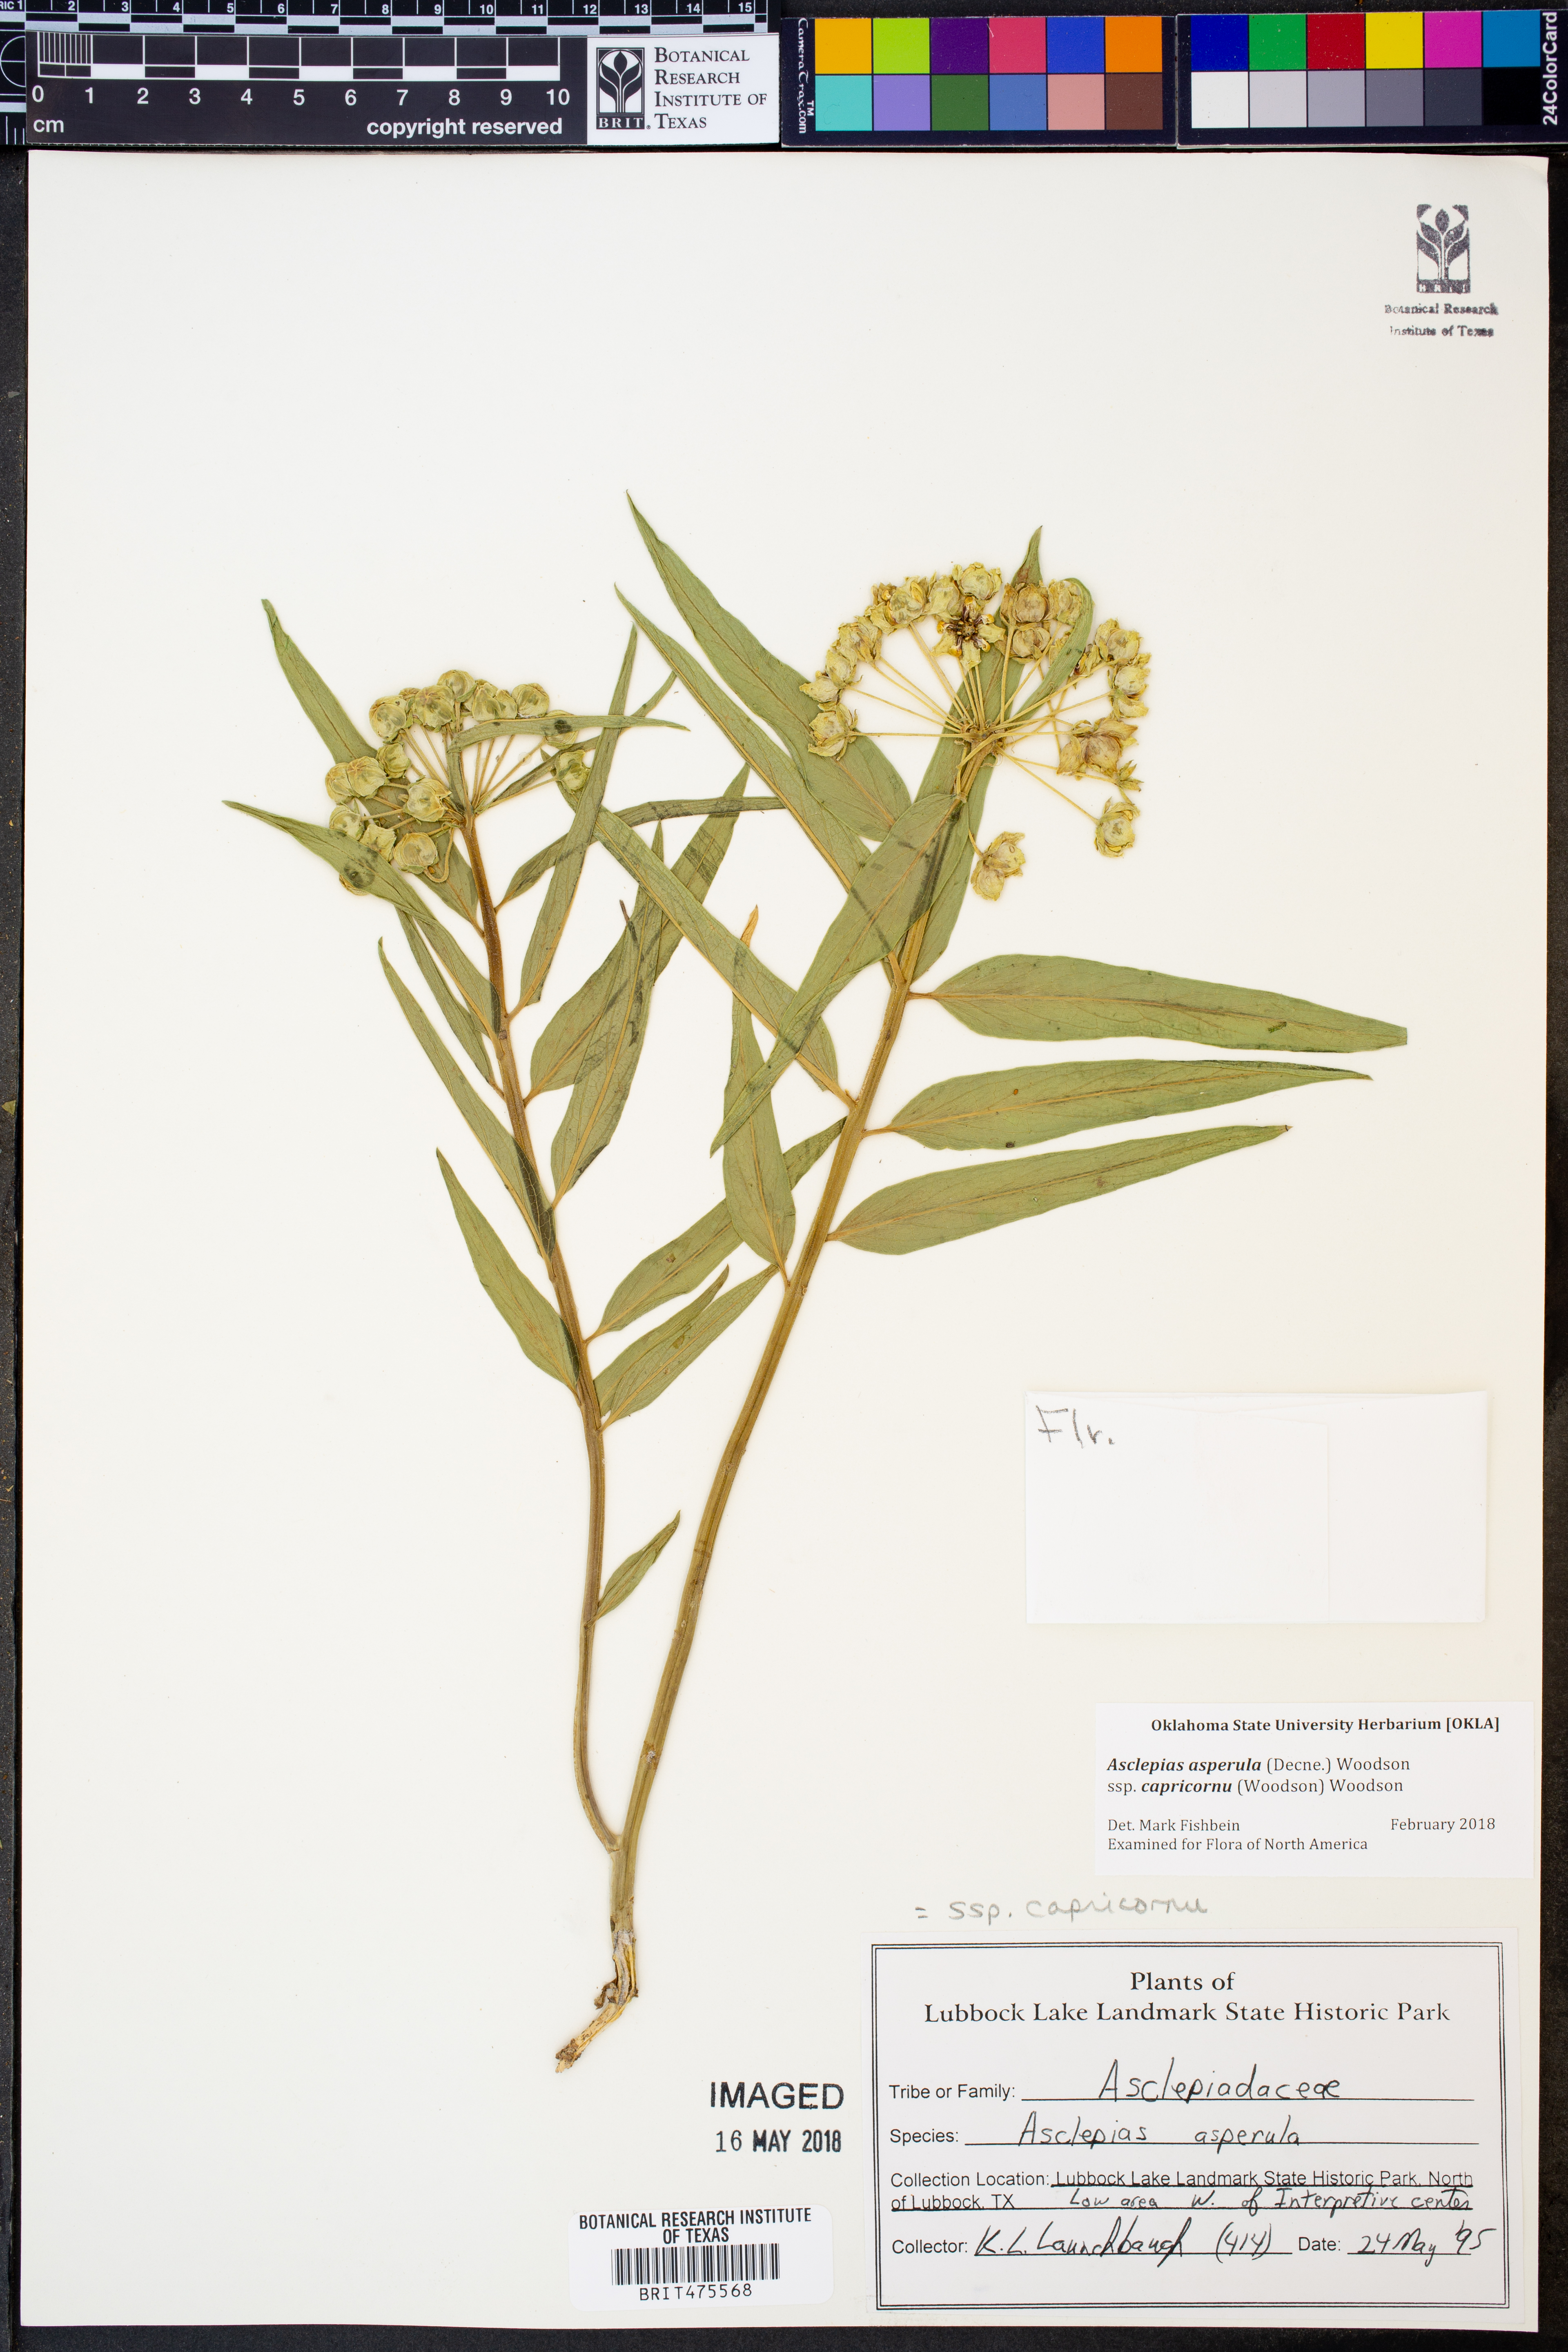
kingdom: Plantae
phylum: Tracheophyta
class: Magnoliopsida
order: Gentianales
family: Apocynaceae
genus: Asclepias
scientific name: Asclepias asperula
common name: Antelope horns
